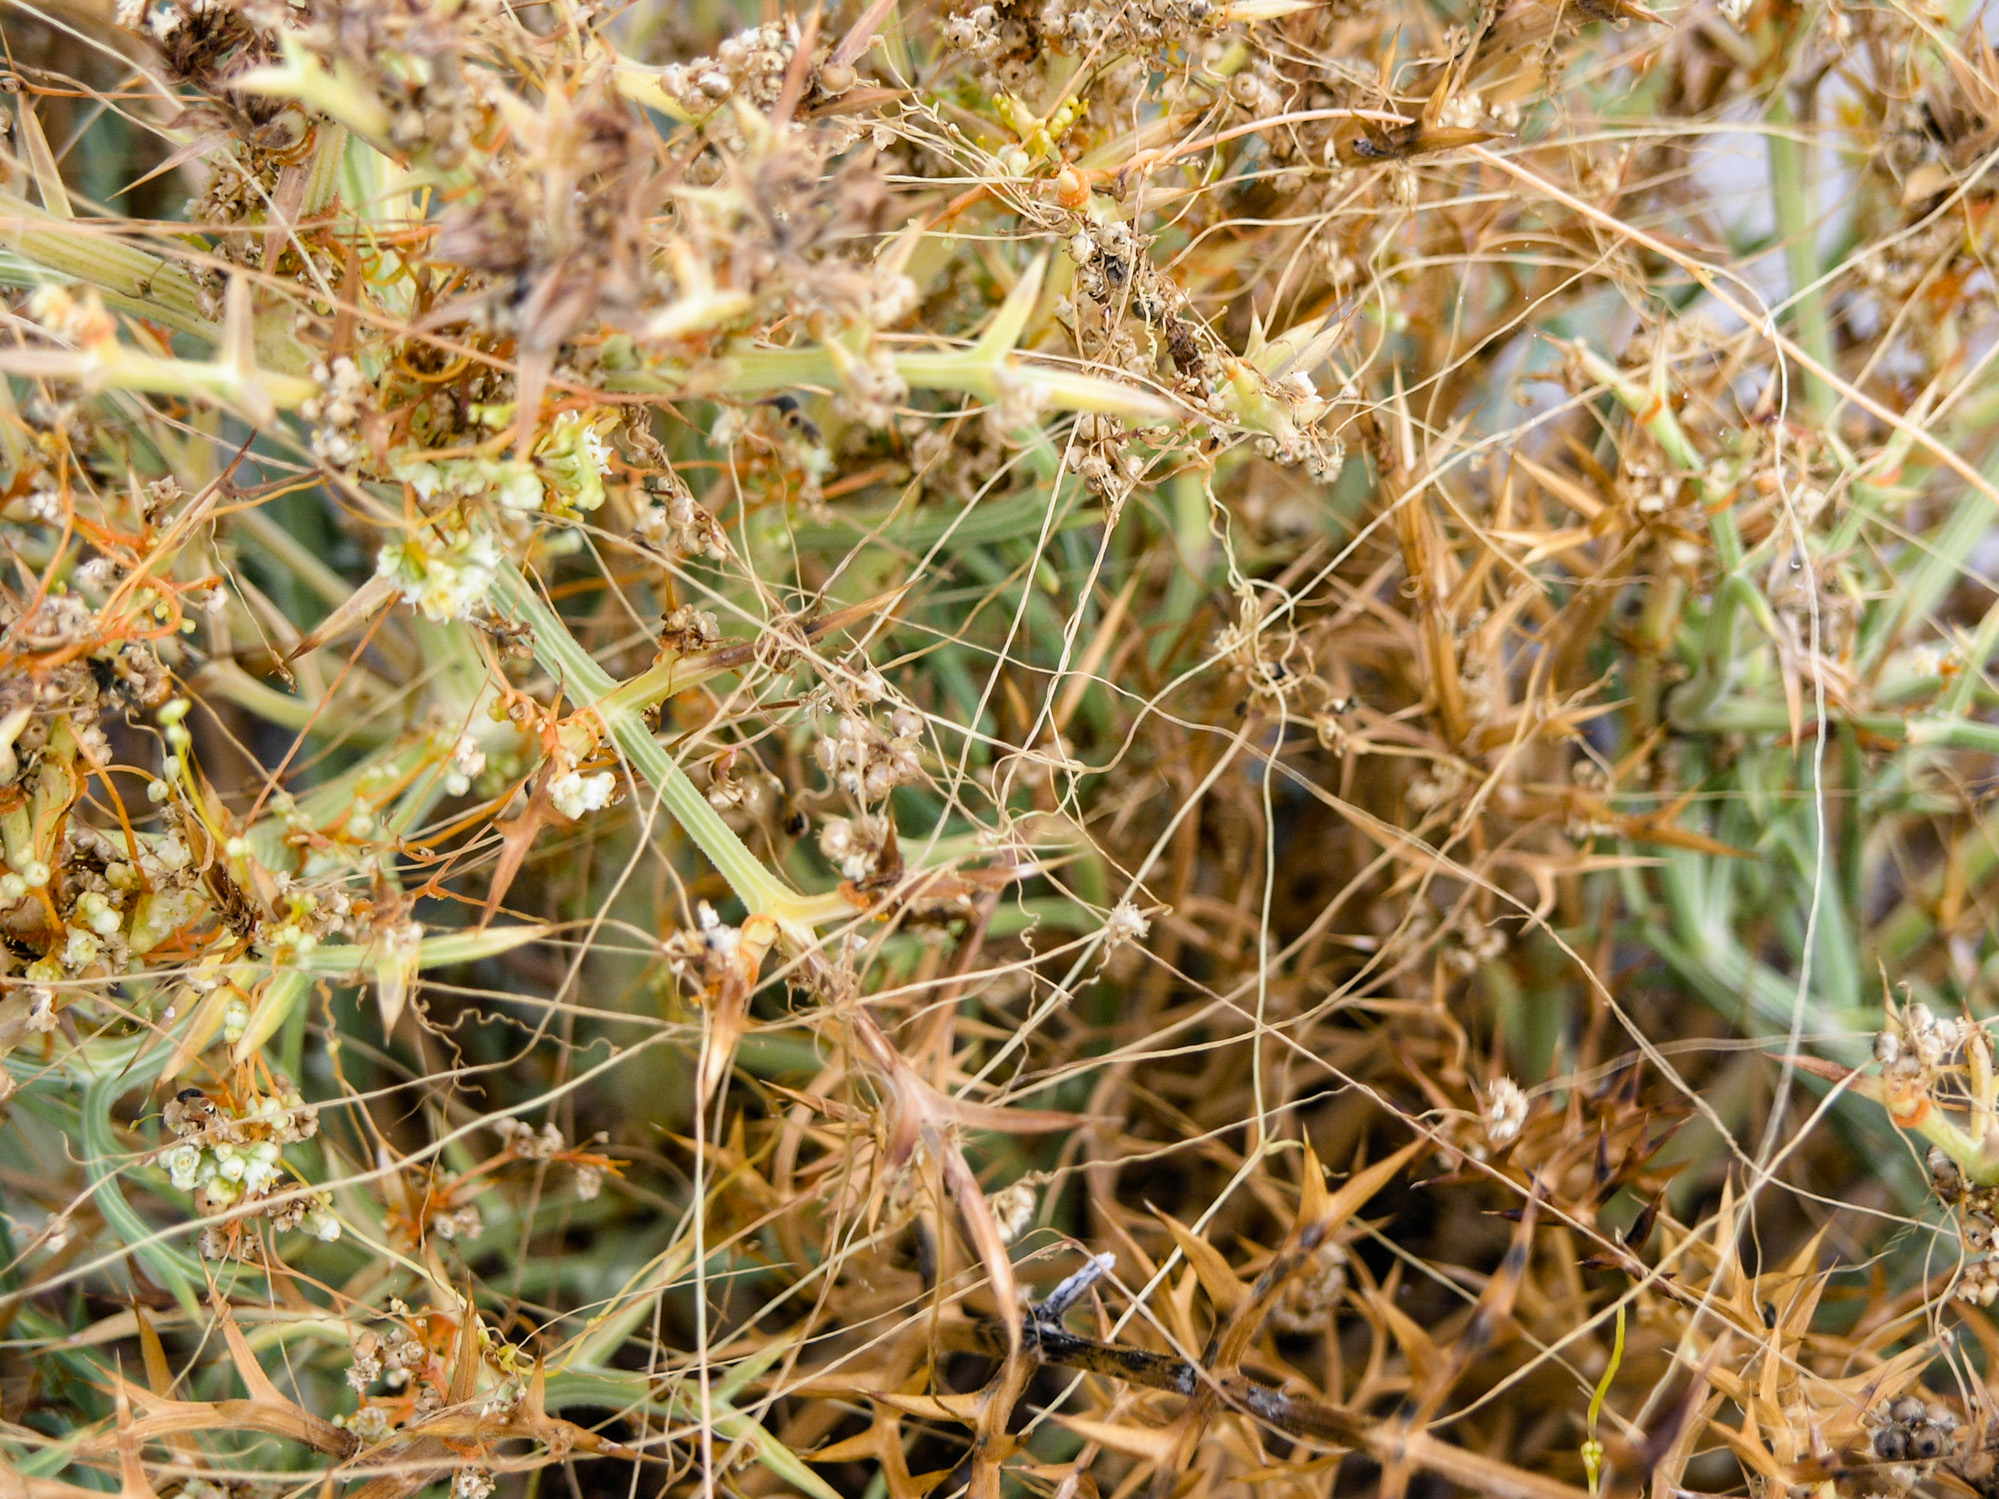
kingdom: Plantae
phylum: Tracheophyta
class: Magnoliopsida
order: Solanales
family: Convolvulaceae
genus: Cuscuta
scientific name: Cuscuta pentagona
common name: Fiveangled dodder
